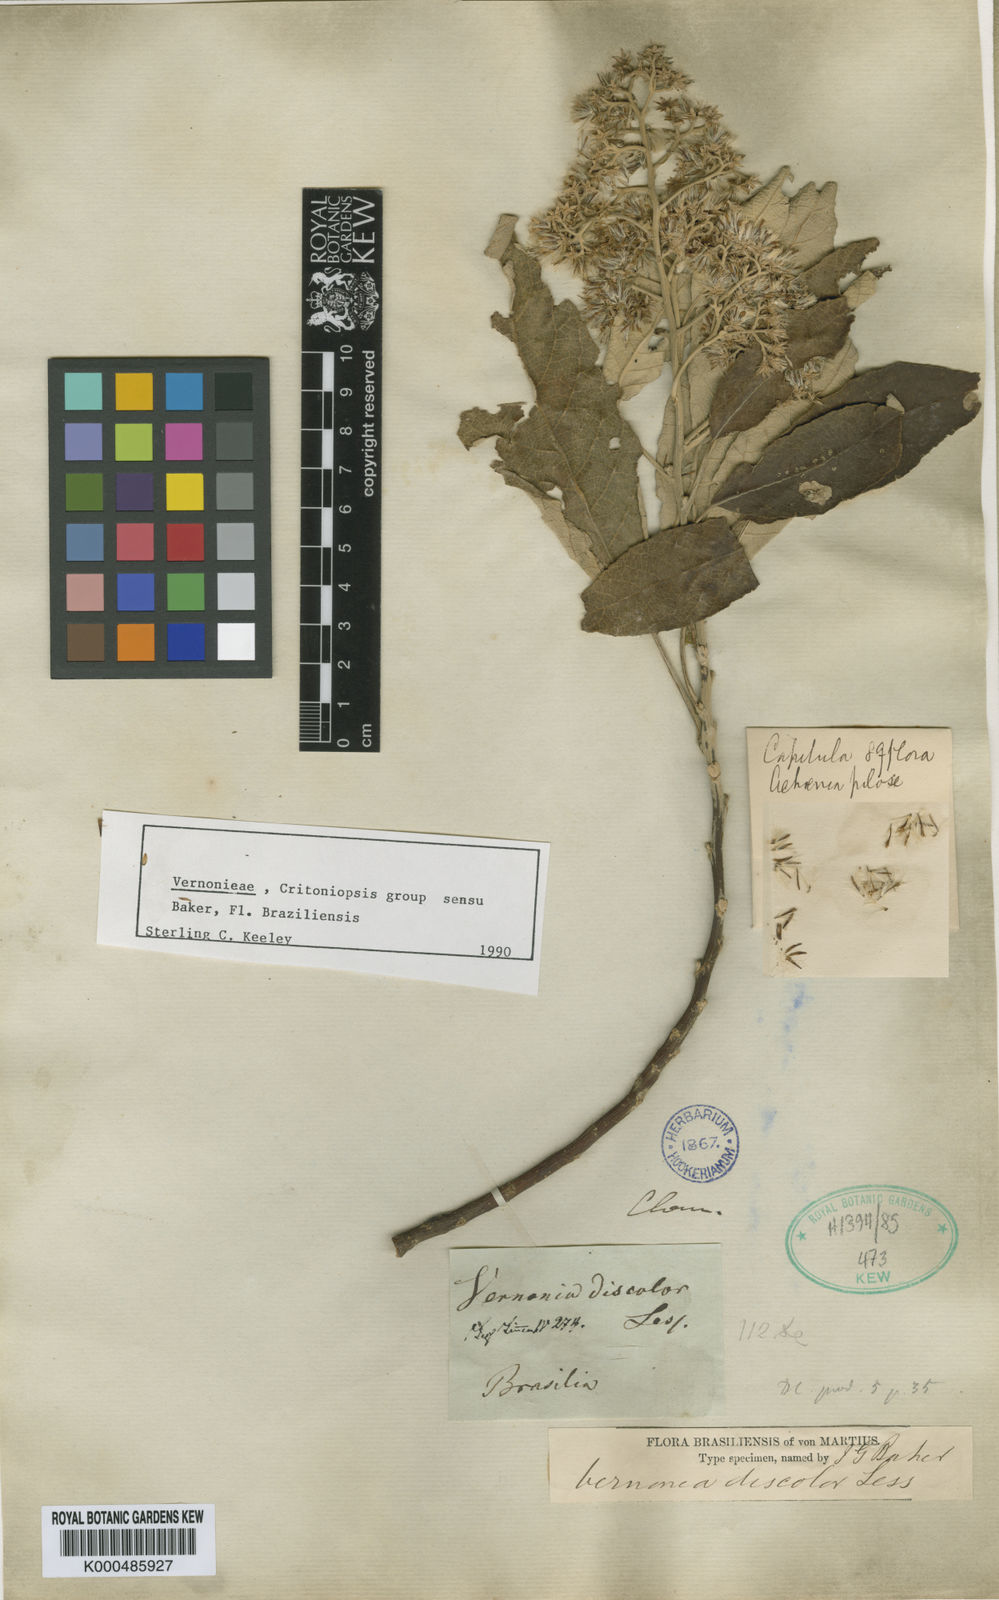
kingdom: Plantae
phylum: Tracheophyta
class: Magnoliopsida
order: Asterales
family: Asteraceae
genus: Vernonanthura
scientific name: Vernonanthura discolor
